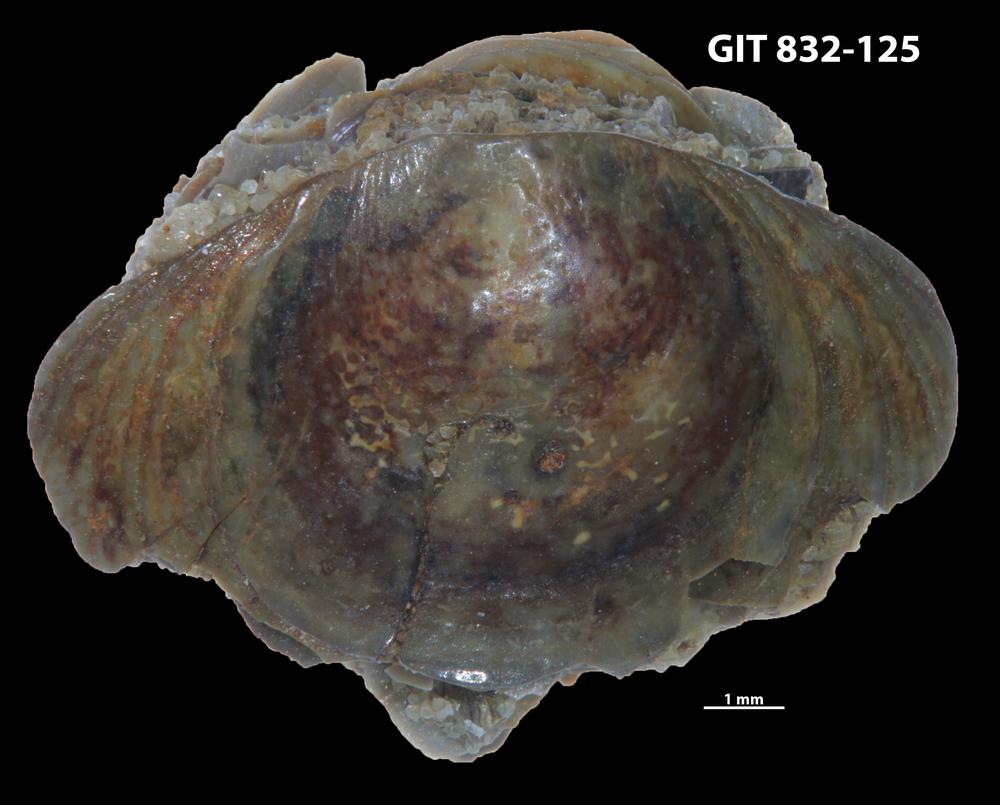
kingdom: Animalia
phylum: Brachiopoda
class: Lingulata
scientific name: Lingulata
